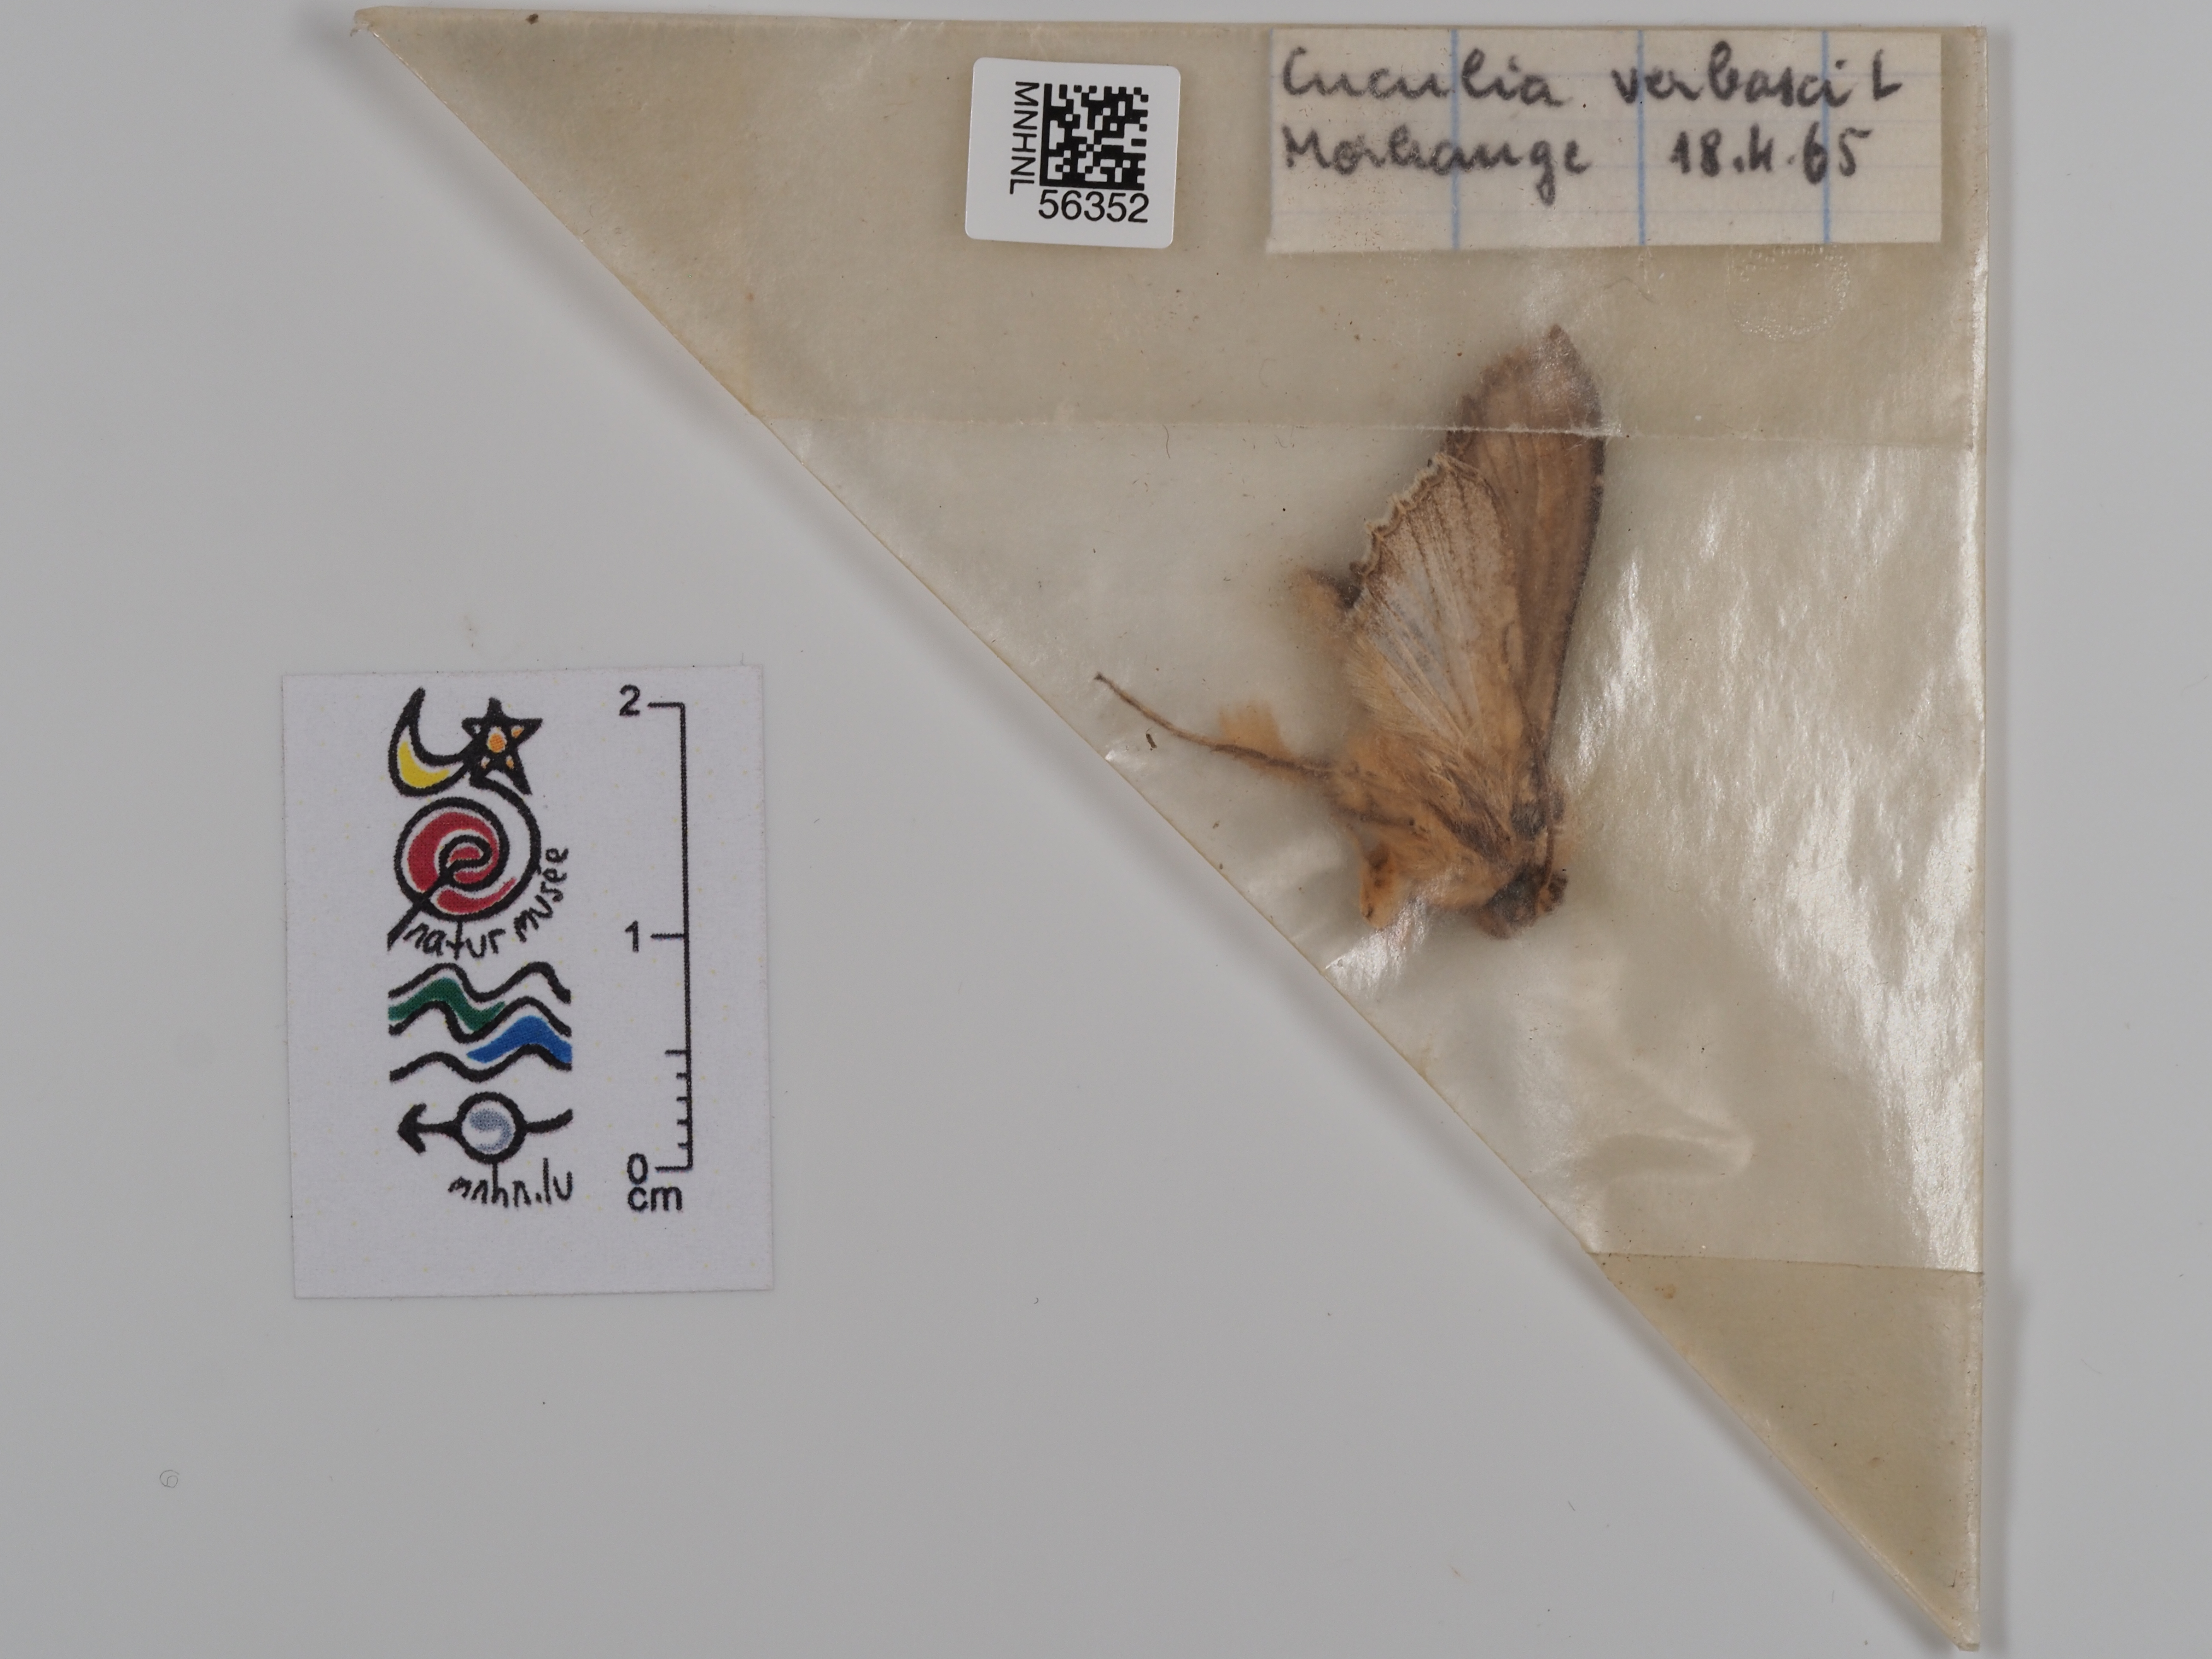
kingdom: Animalia
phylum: Arthropoda
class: Insecta
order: Lepidoptera
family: Noctuidae
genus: Cucullia
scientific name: Cucullia verbasci
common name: Mullein
